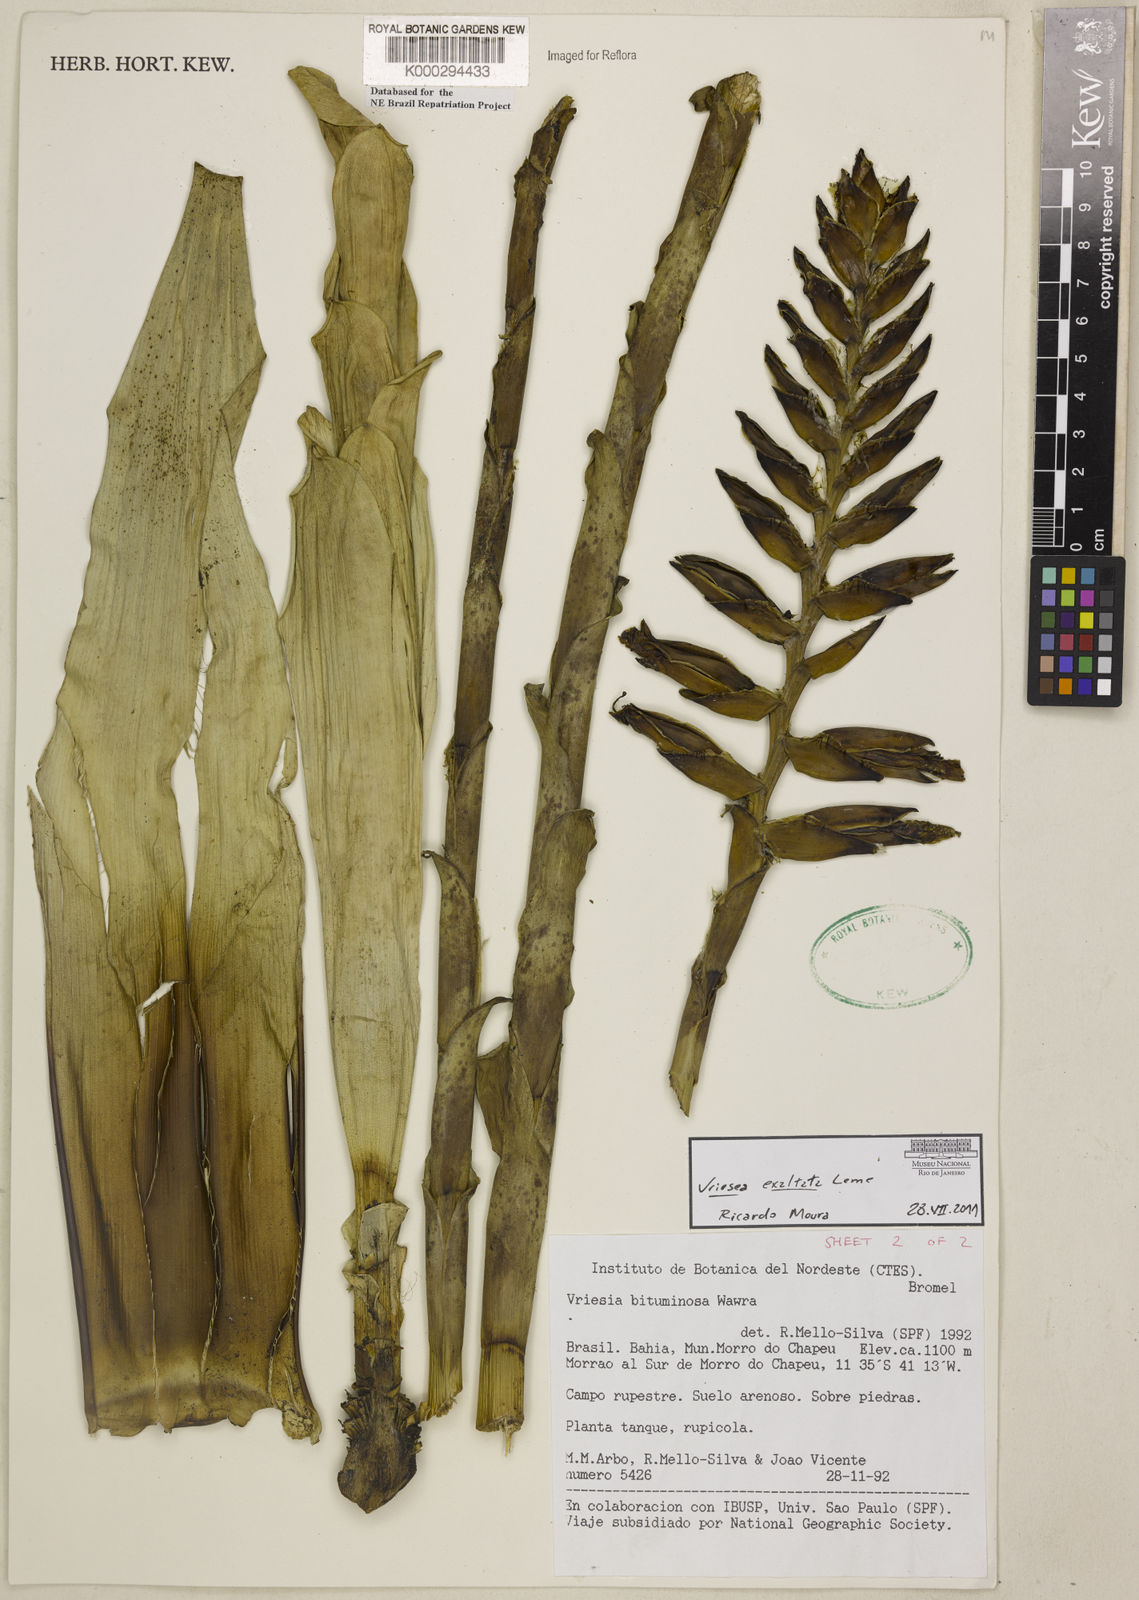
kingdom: Plantae
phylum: Tracheophyta
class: Liliopsida
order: Poales
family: Bromeliaceae
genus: Vriesea
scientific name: Vriesea bituminosa
